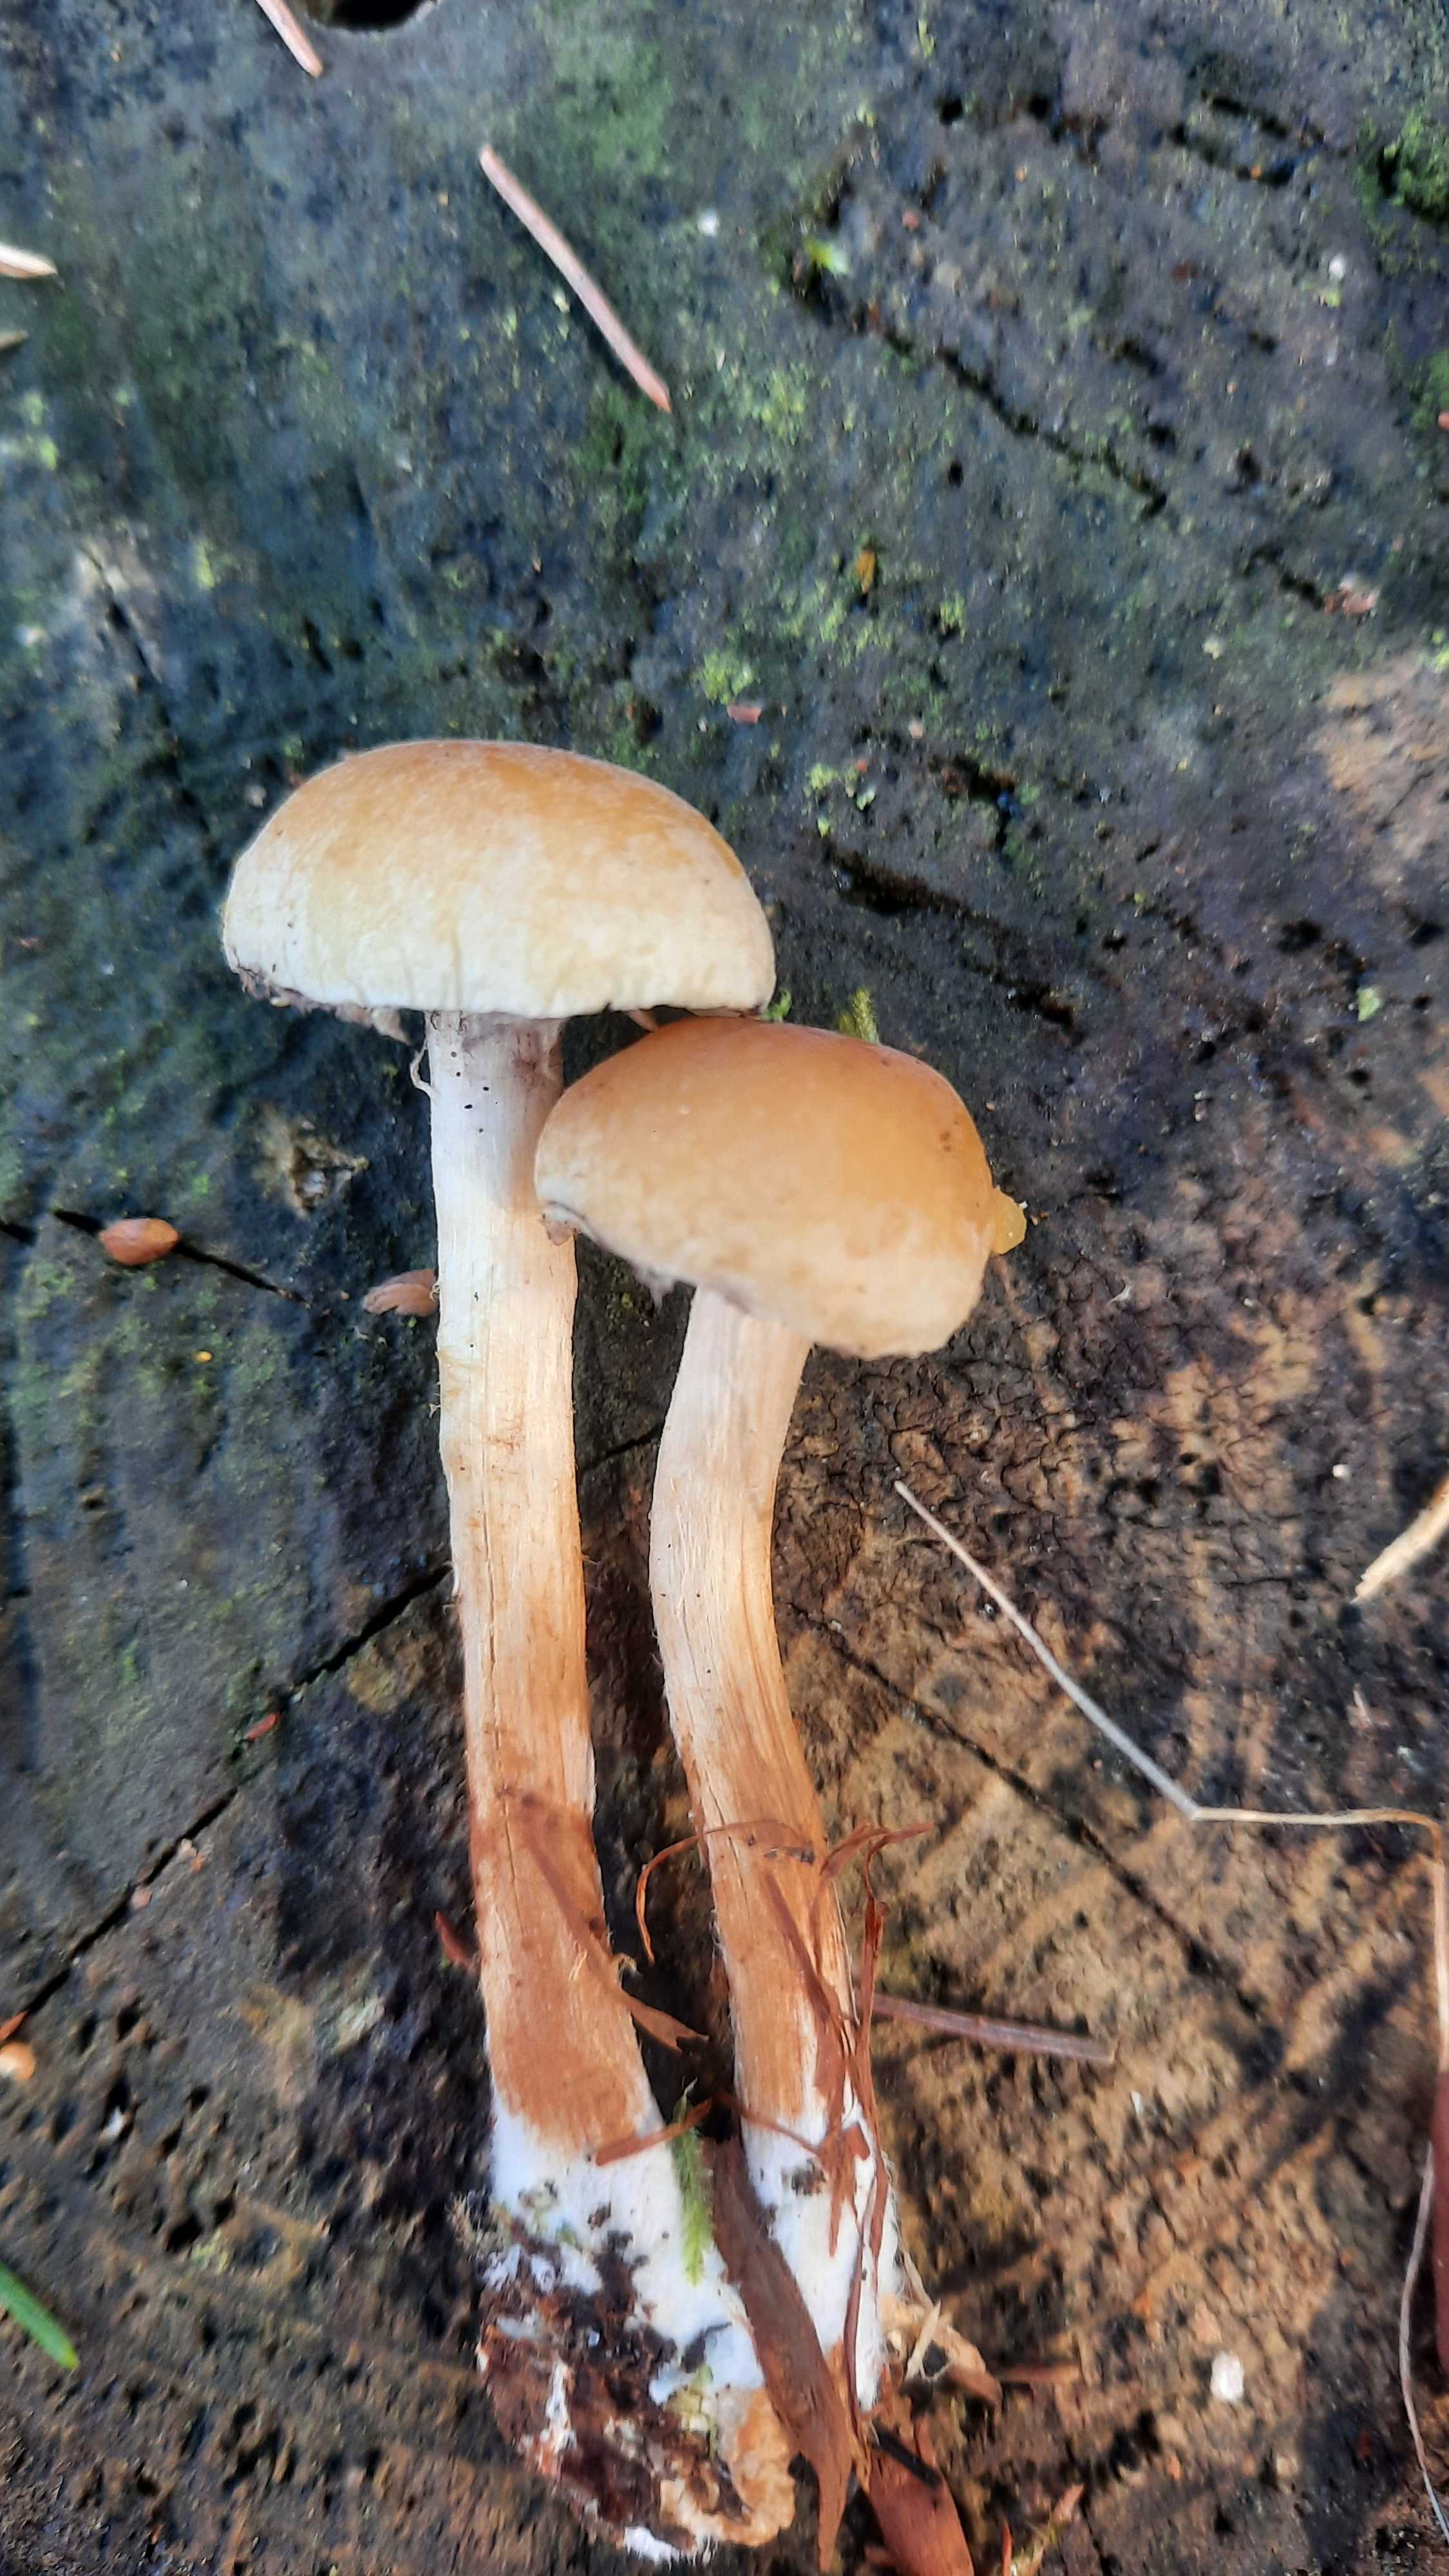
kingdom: Fungi
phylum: Basidiomycota
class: Agaricomycetes
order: Agaricales
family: Strophariaceae
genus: Hypholoma
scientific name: Hypholoma capnoides
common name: gran-svovlhat
